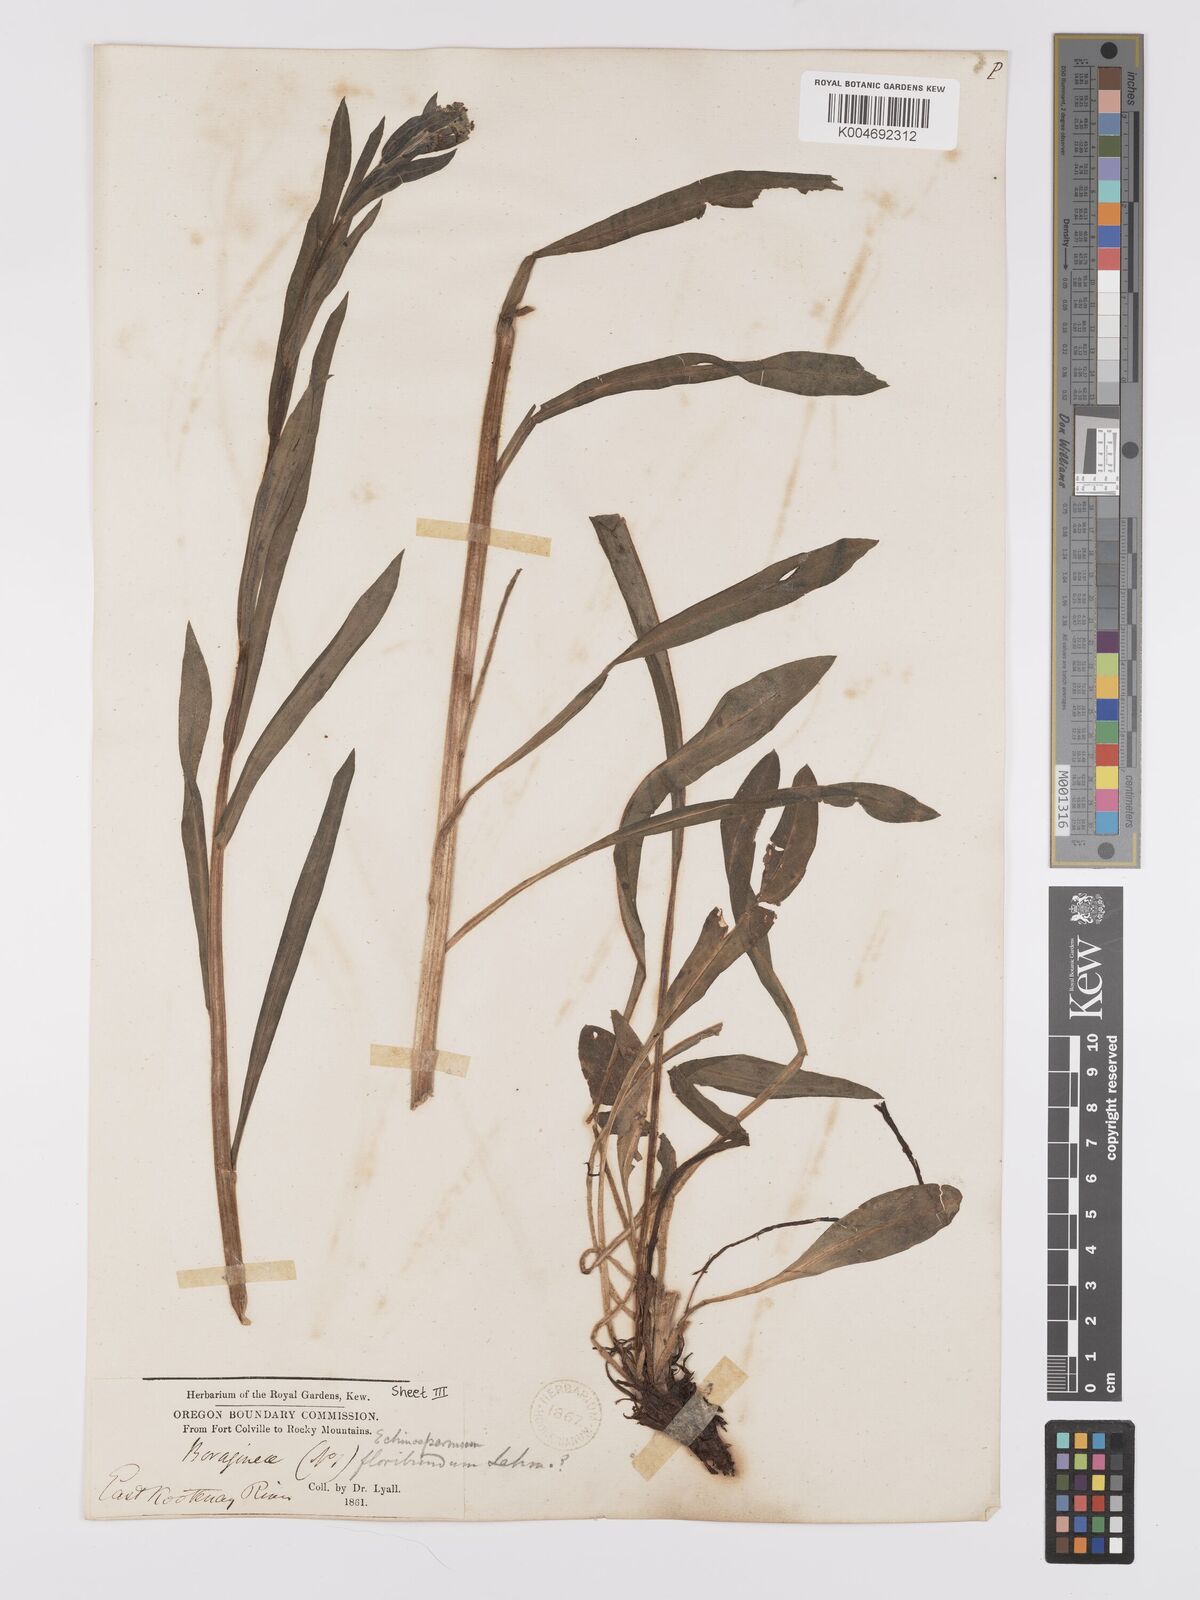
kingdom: Plantae
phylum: Tracheophyta
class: Magnoliopsida
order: Boraginales
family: Boraginaceae
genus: Hackelia
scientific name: Hackelia diffusa
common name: Spreading hackelia
